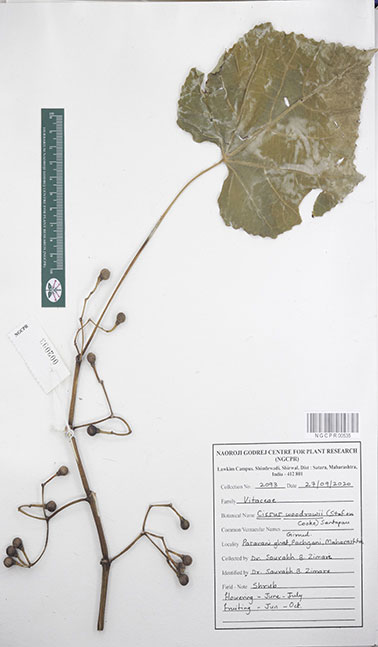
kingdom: Plantae
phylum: Tracheophyta
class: Magnoliopsida
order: Vitales
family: Vitaceae
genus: Cissus
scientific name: Cissus woodrowii
